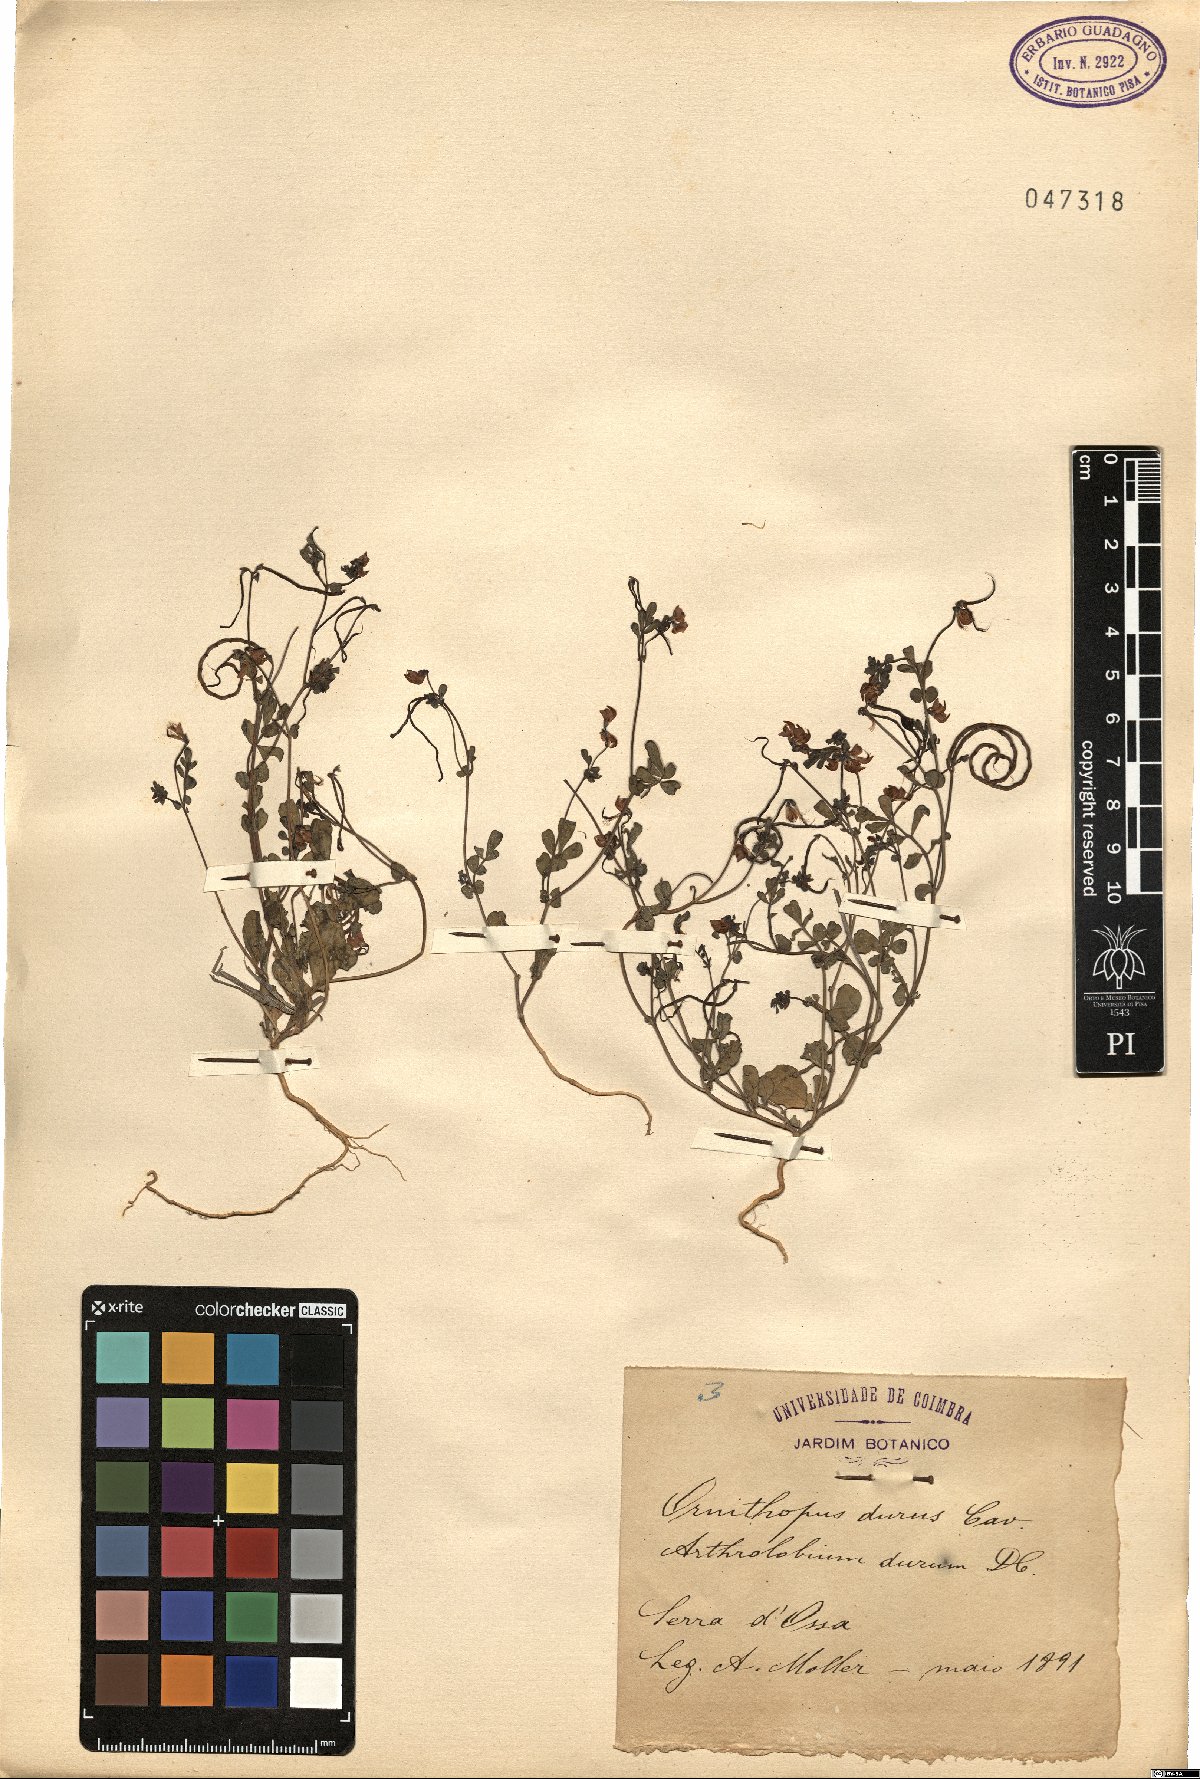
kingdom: Plantae
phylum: Tracheophyta
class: Magnoliopsida
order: Fabales
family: Fabaceae
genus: Coronilla
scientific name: Coronilla dura
